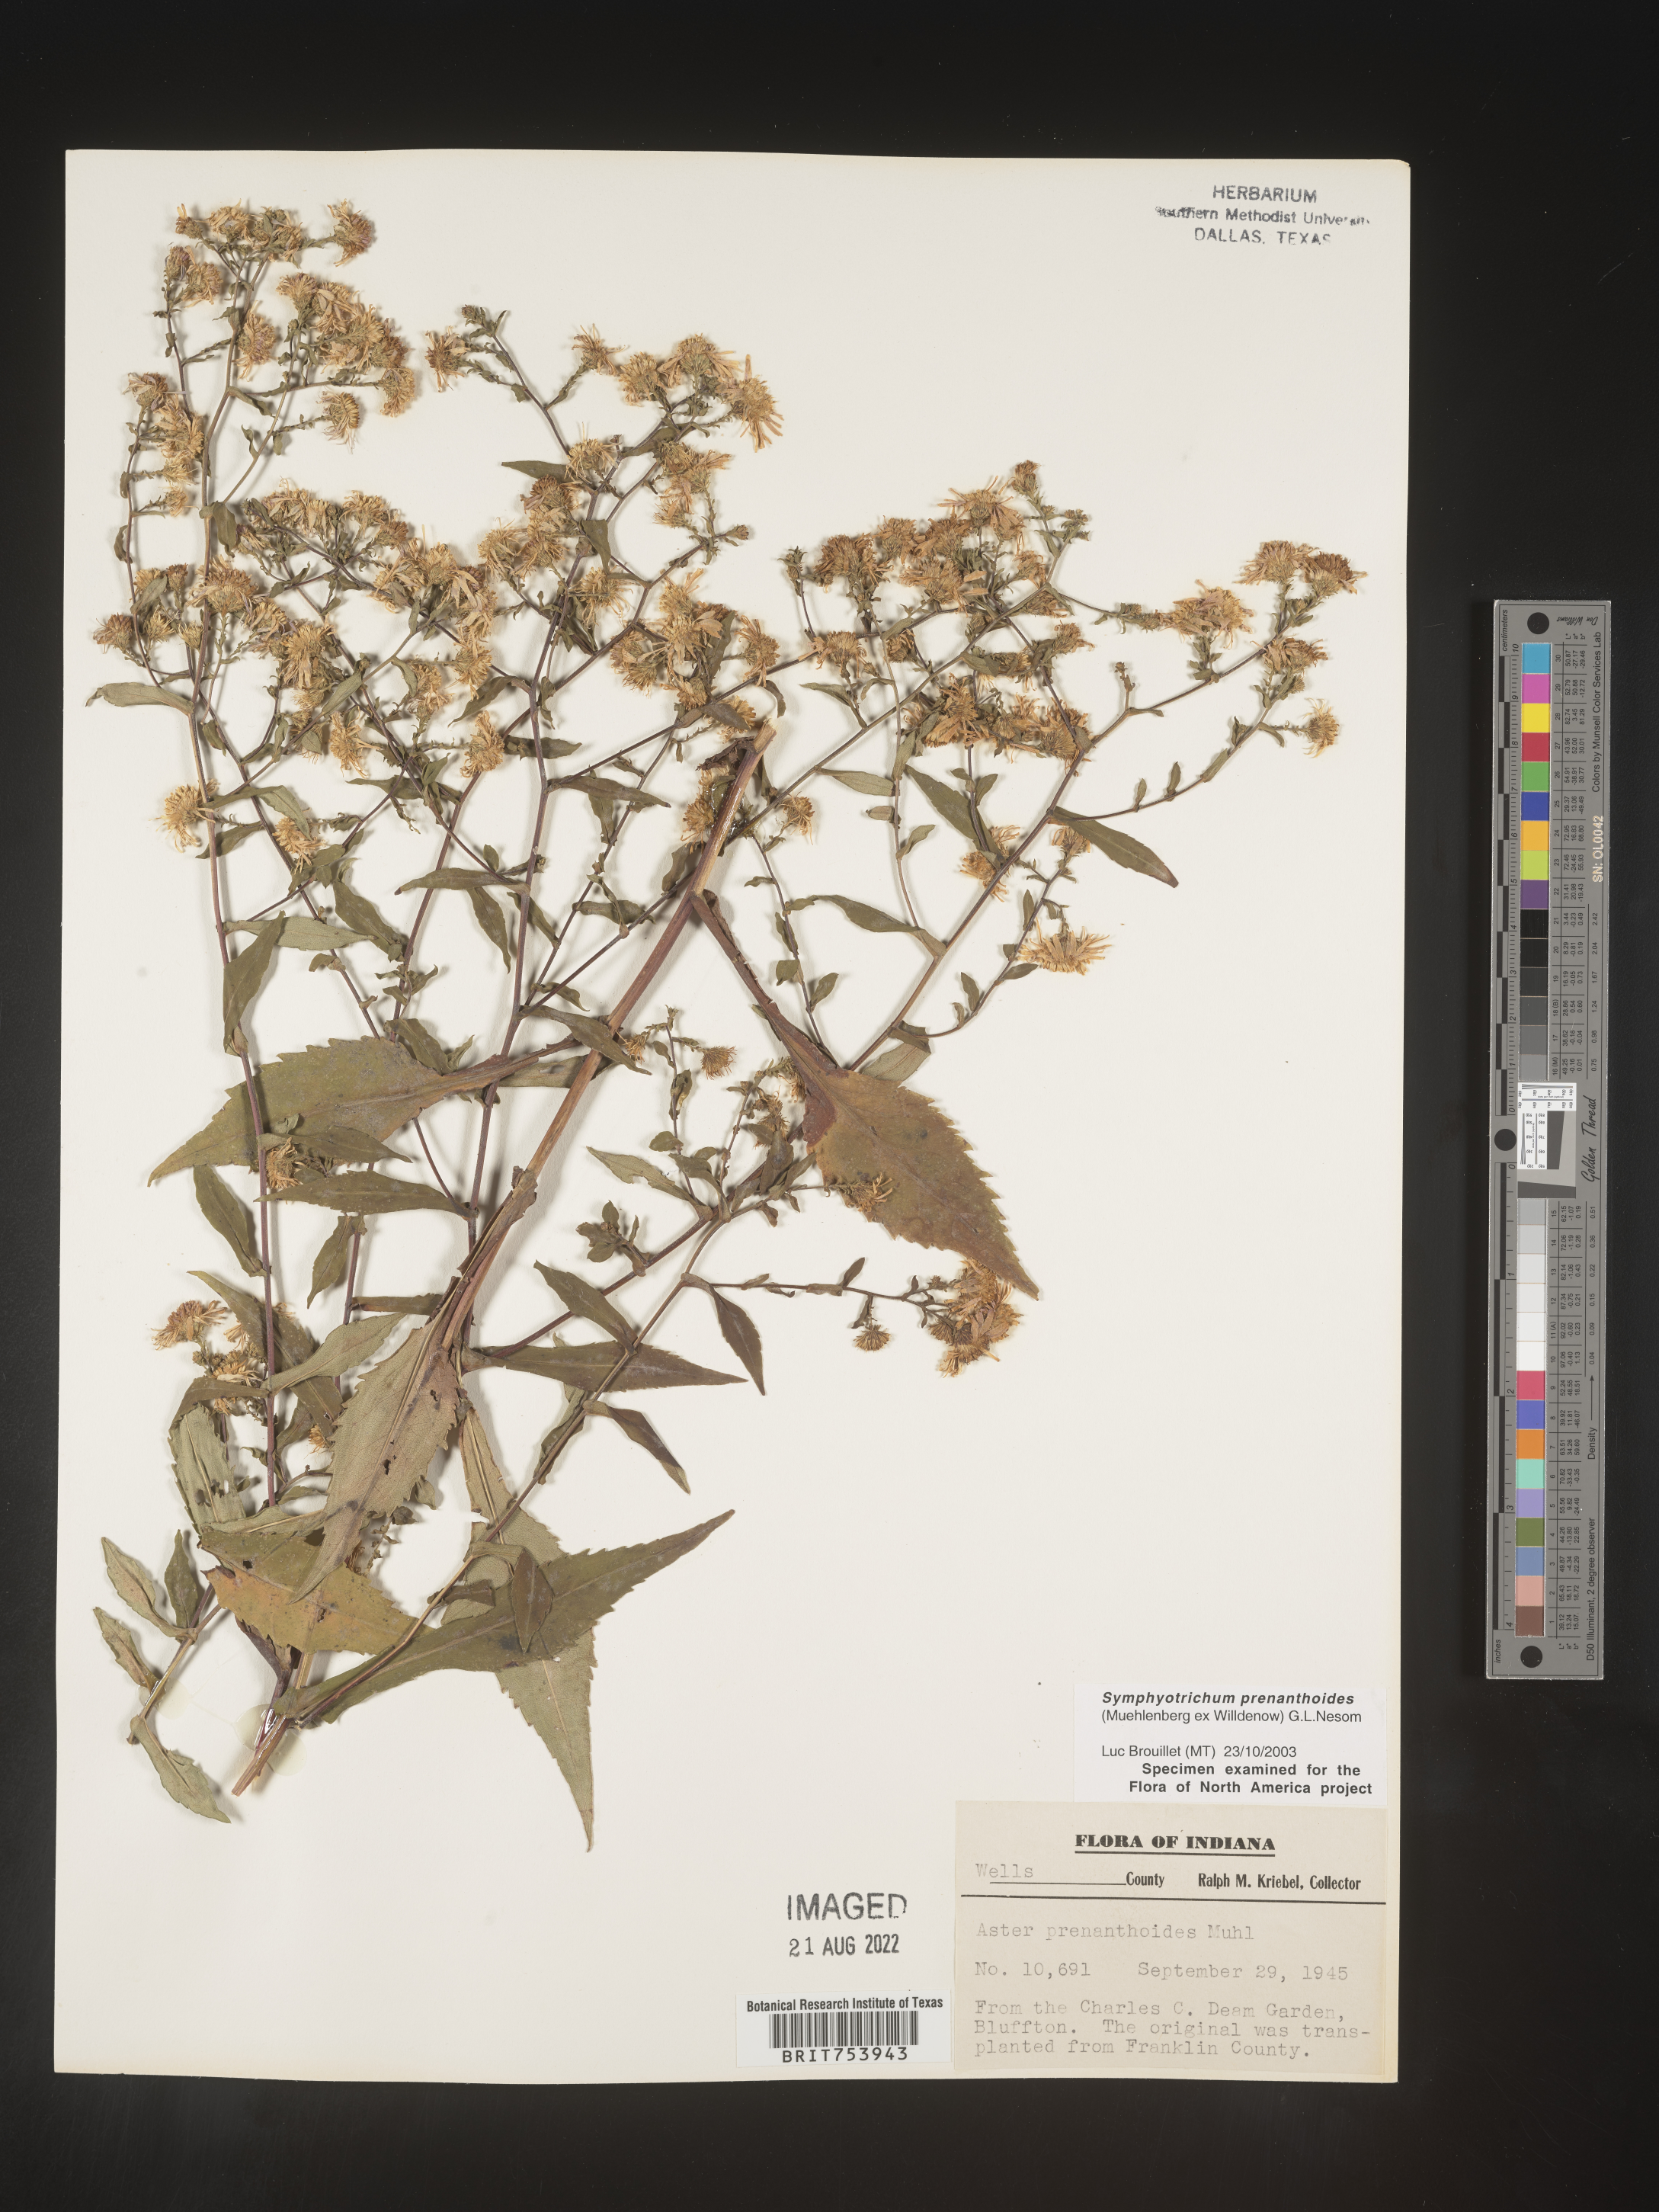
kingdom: Plantae
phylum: Tracheophyta
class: Magnoliopsida
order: Asterales
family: Asteraceae
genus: Symphyotrichum
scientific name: Symphyotrichum prenanthoides
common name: Crooked-stem aster
